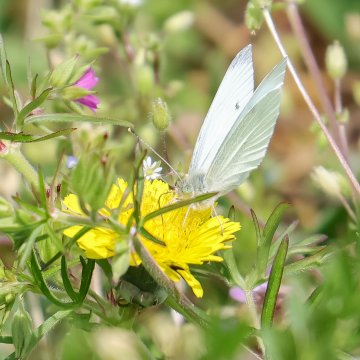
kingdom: Animalia
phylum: Arthropoda
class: Insecta
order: Lepidoptera
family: Pieridae
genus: Pieris
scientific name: Pieris rapae
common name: Cabbage White
